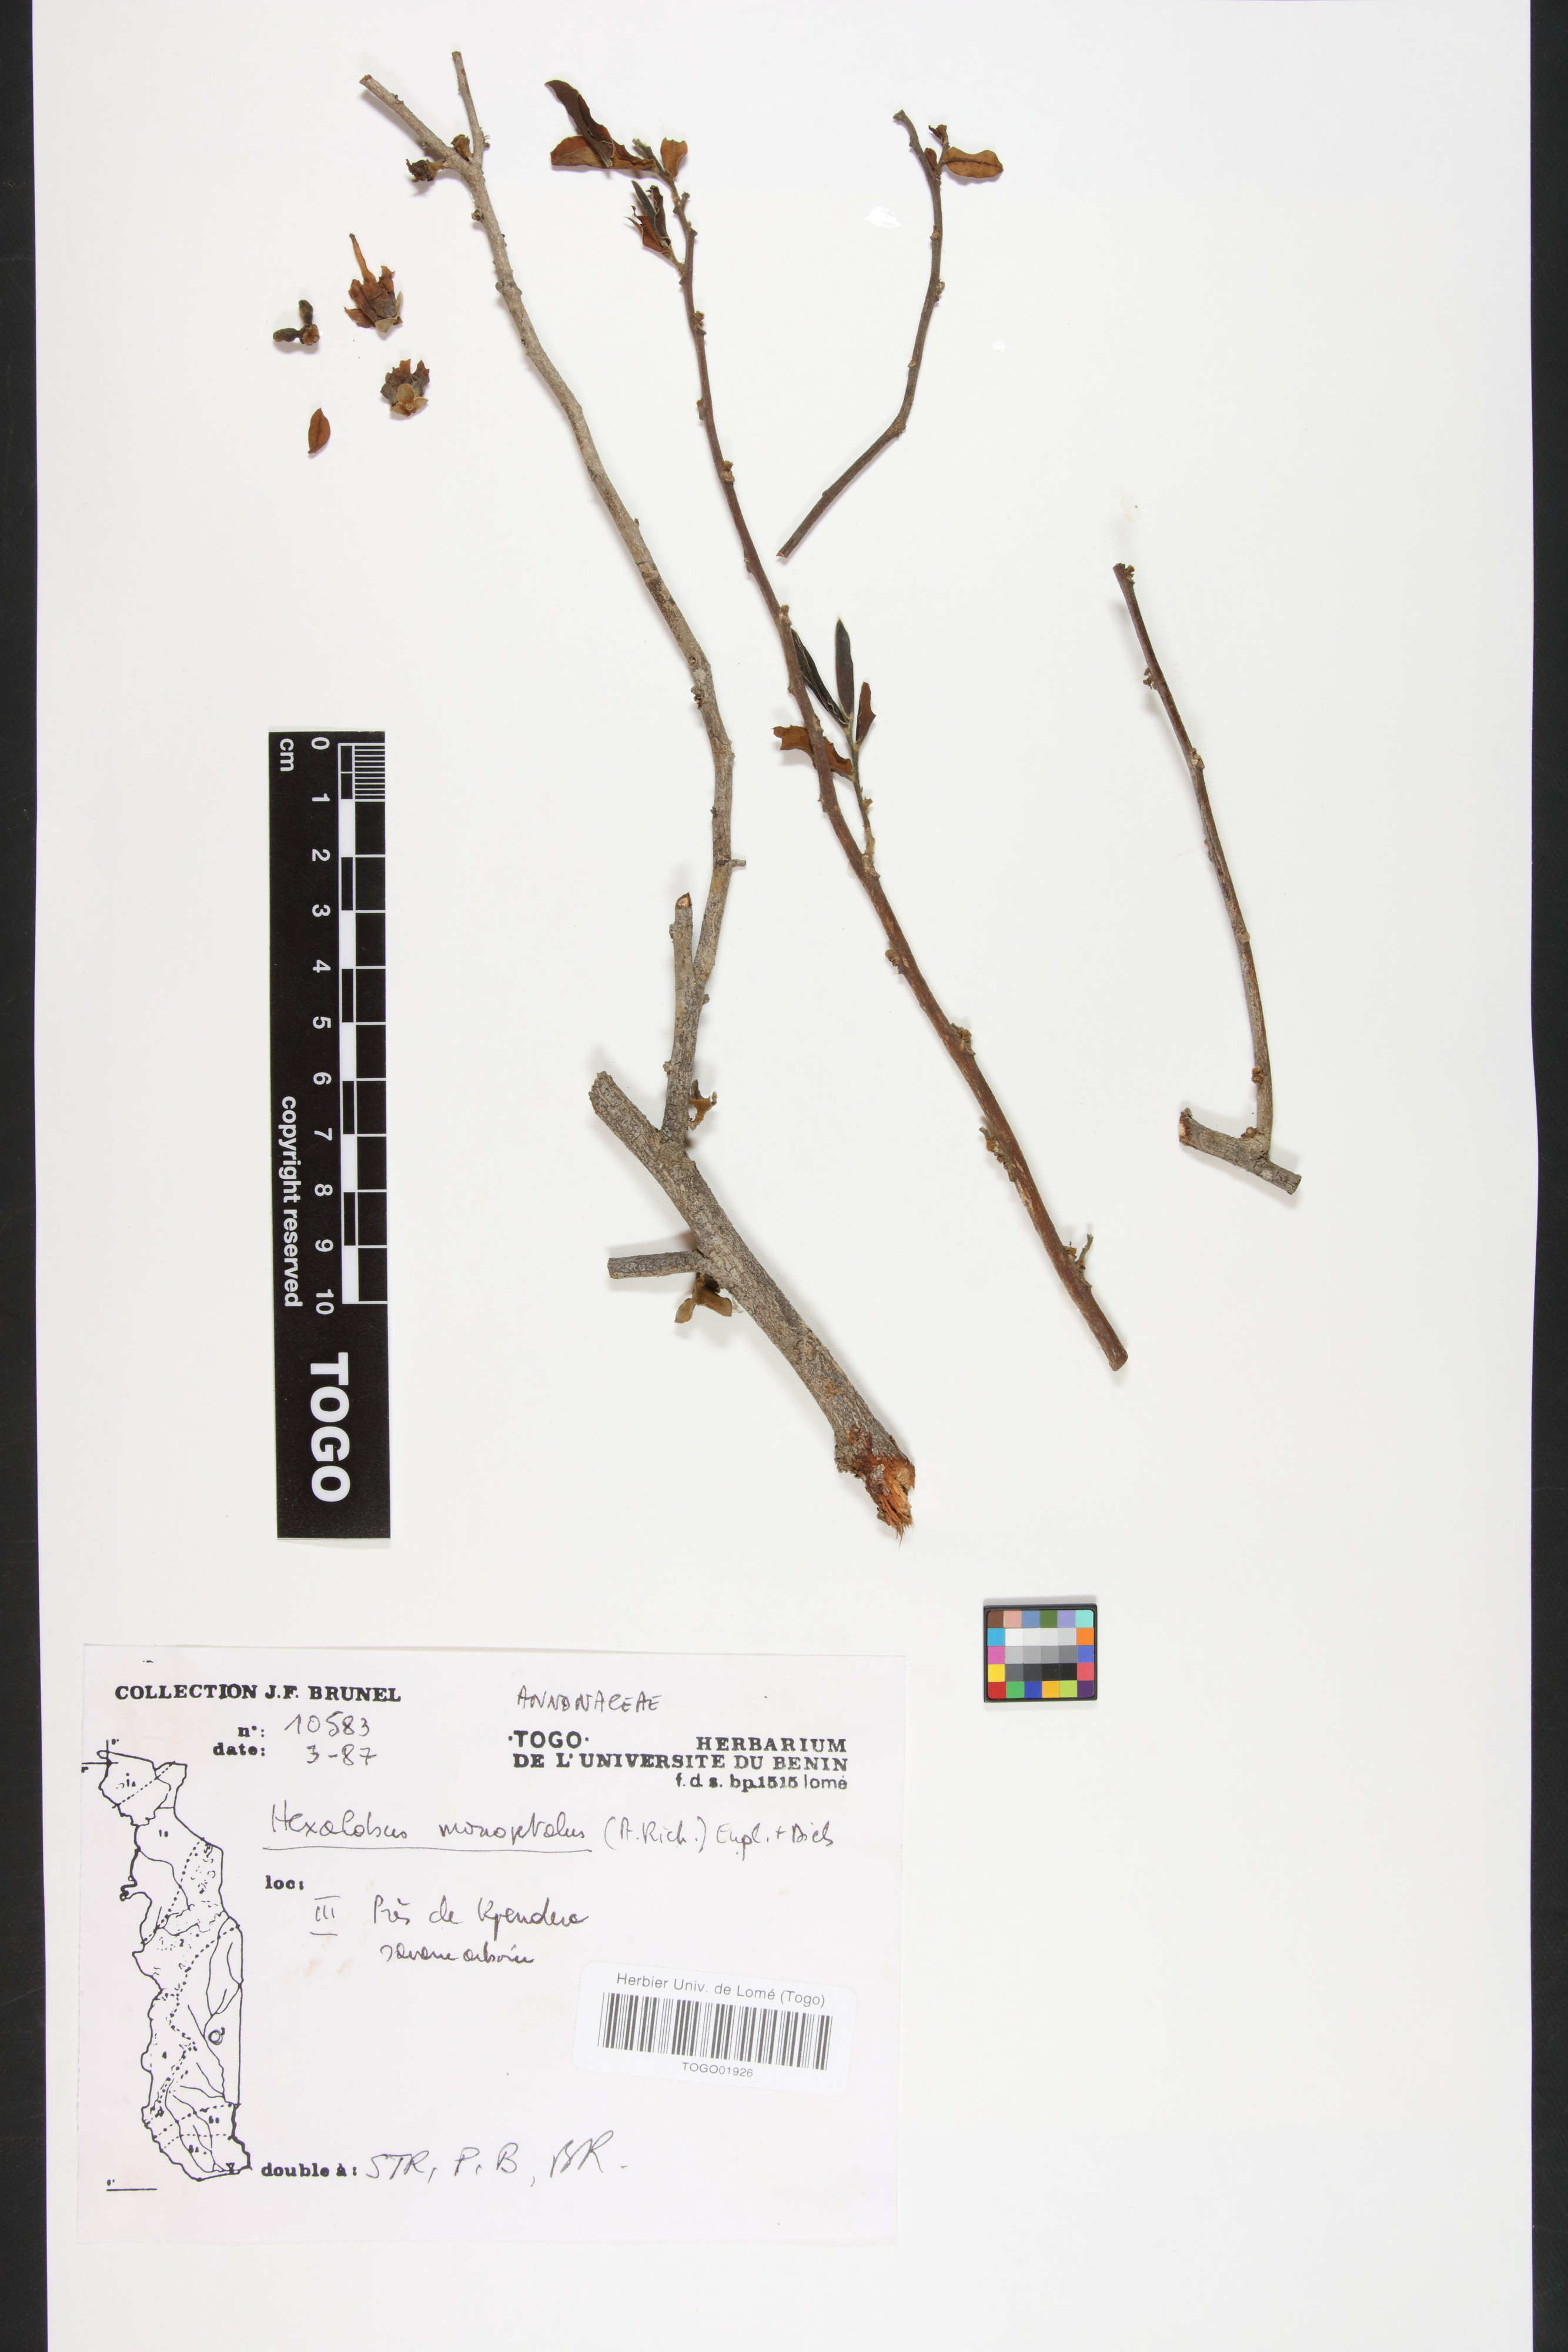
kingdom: Plantae
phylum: Tracheophyta
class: Magnoliopsida
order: Magnoliales
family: Annonaceae
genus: Hexalobus
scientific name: Hexalobus monopetalus
